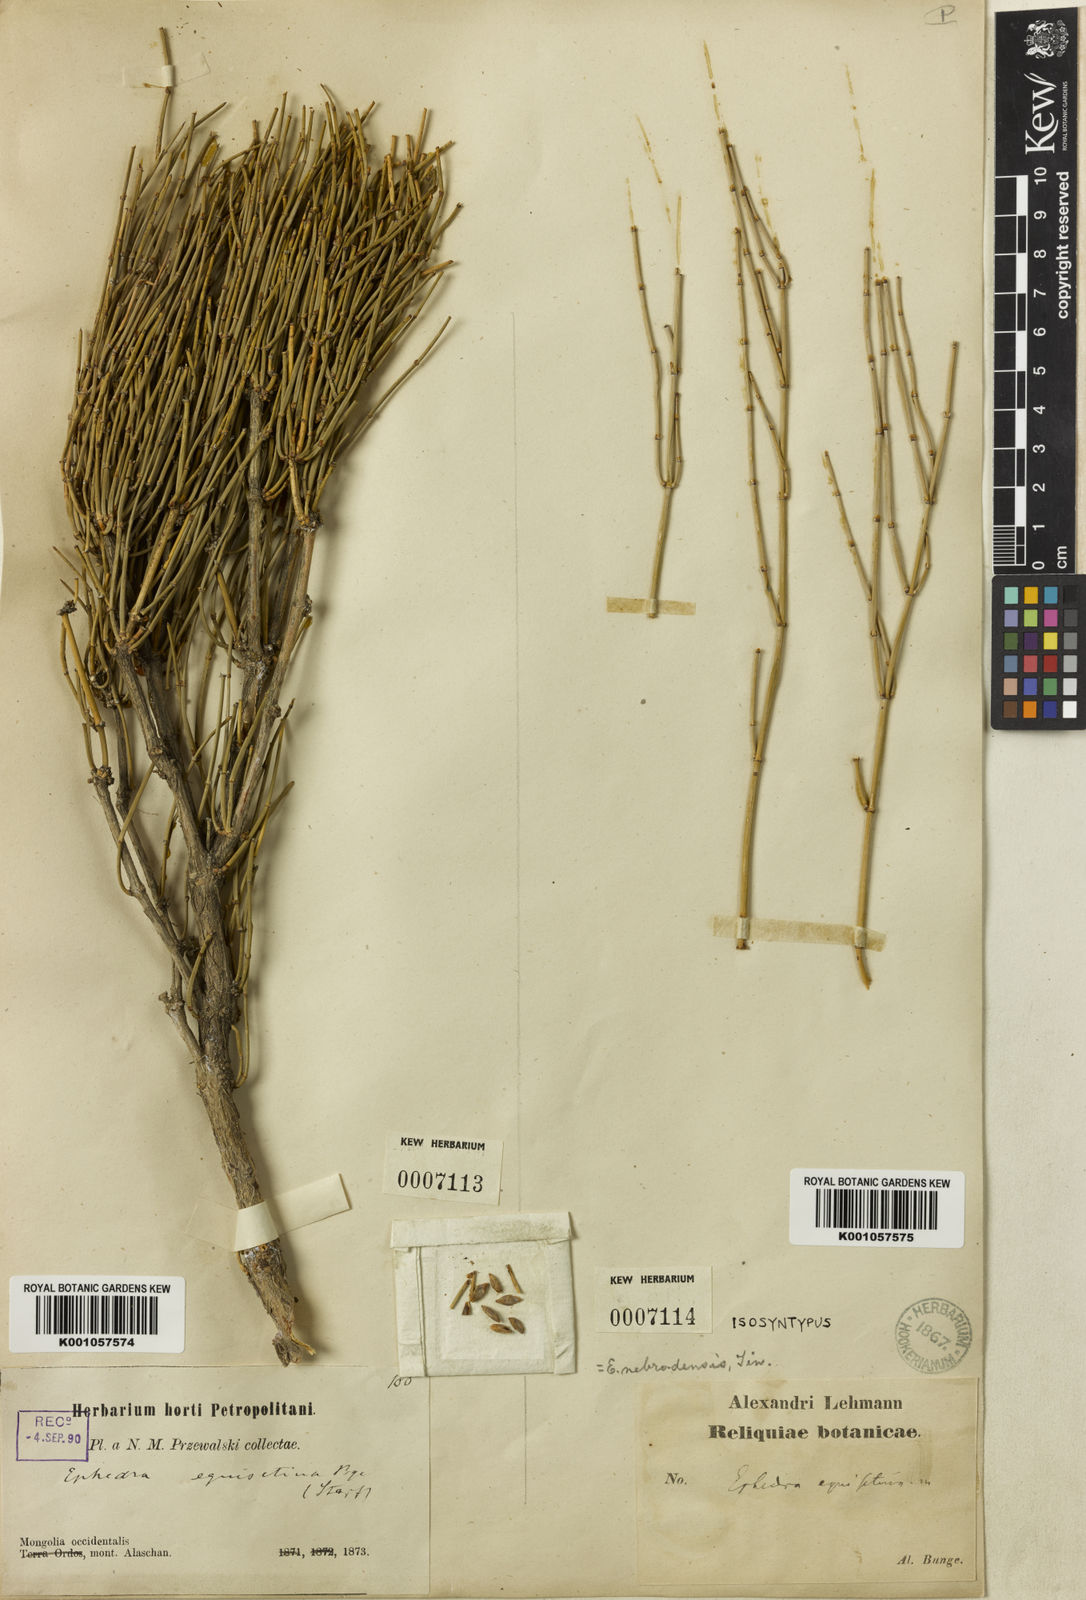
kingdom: Plantae
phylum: Tracheophyta
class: Gnetopsida
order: Ephedrales
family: Ephedraceae
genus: Ephedra
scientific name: Ephedra equisetina
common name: Mongolian ephedra
